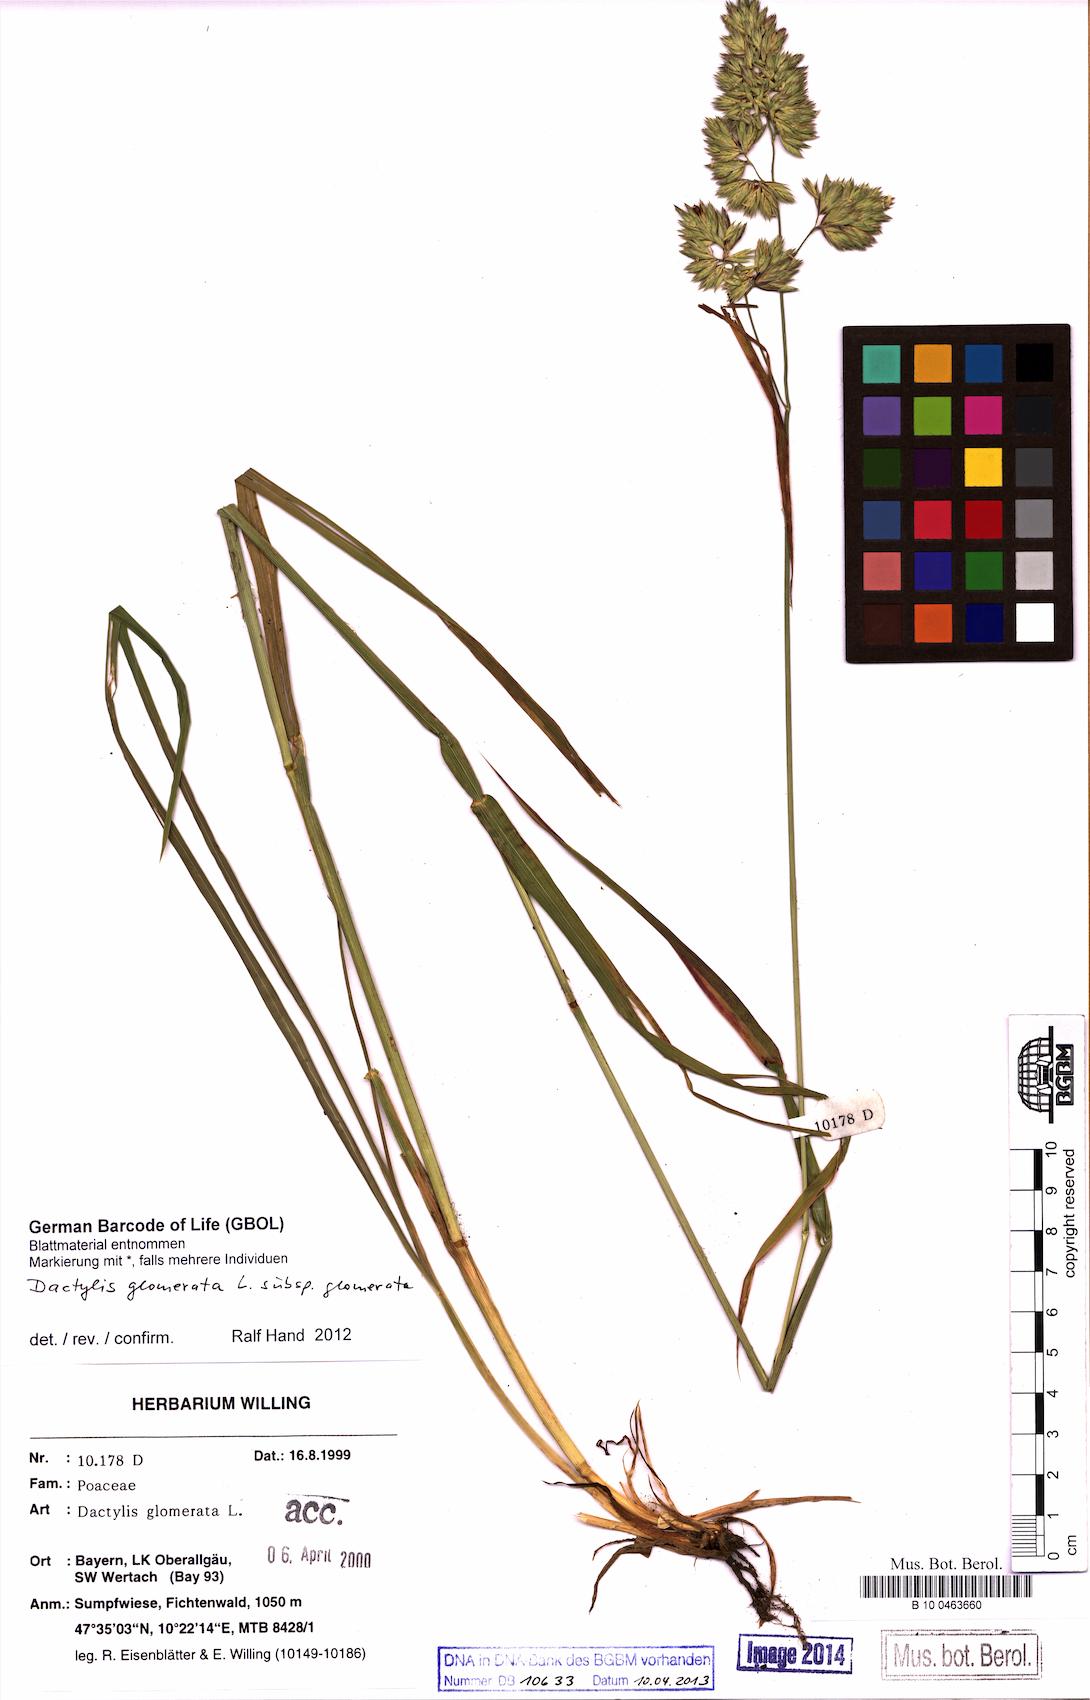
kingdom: Plantae
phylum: Tracheophyta
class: Liliopsida
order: Poales
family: Poaceae
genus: Dactylis
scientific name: Dactylis glomerata
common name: Orchardgrass
